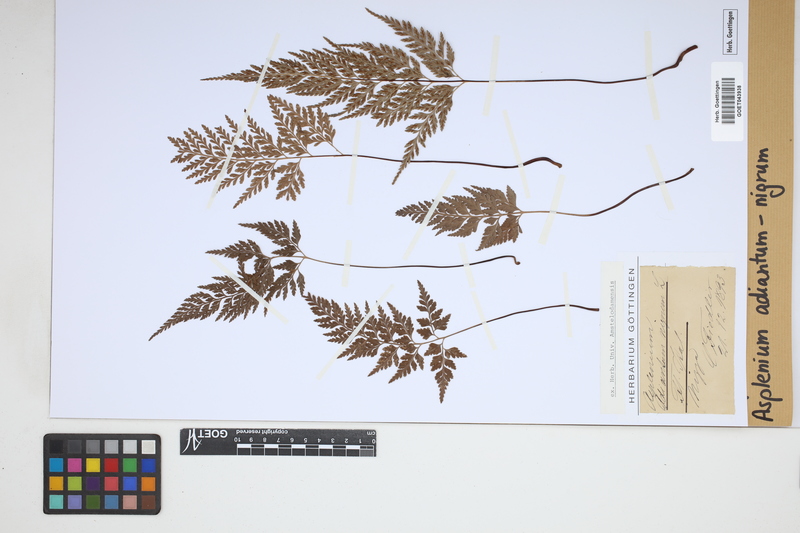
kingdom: Plantae
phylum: Tracheophyta
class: Polypodiopsida
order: Polypodiales
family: Aspleniaceae
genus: Asplenium
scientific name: Asplenium adiantum-nigrum
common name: Black spleenwort
